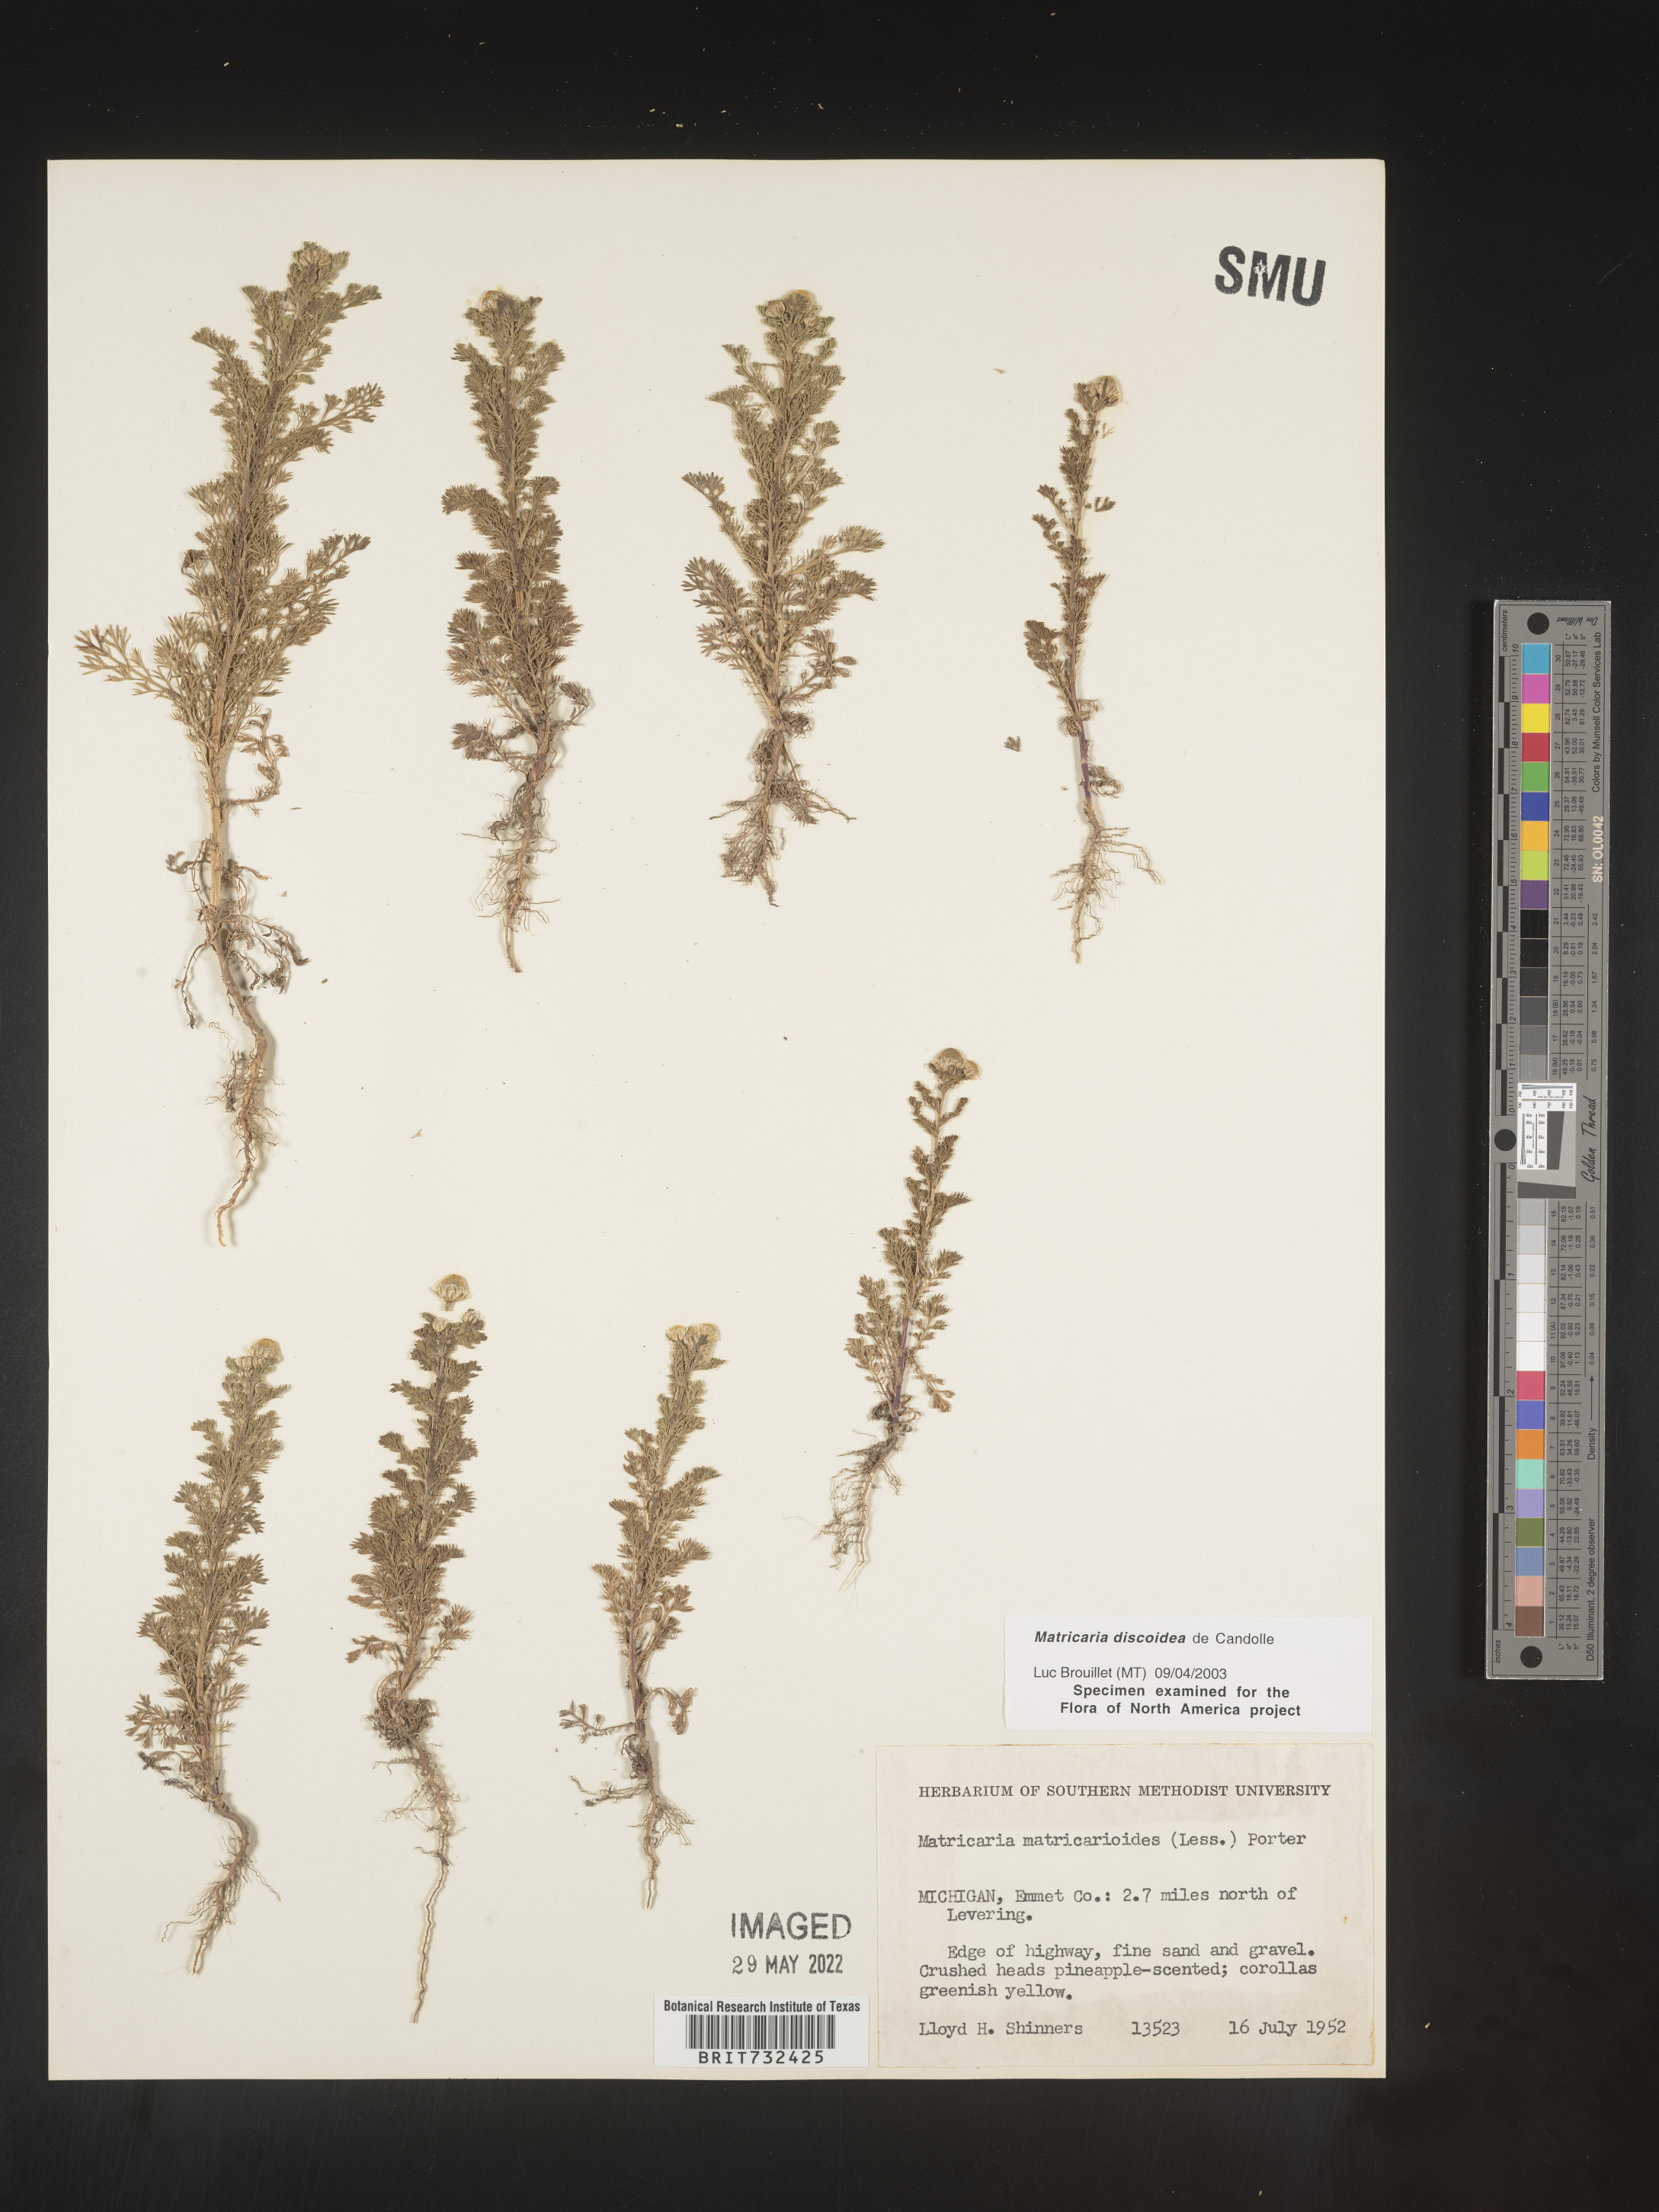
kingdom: Plantae
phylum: Tracheophyta
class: Magnoliopsida
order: Asterales
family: Asteraceae
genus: Matricaria
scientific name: Matricaria discoidea
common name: Disc mayweed
